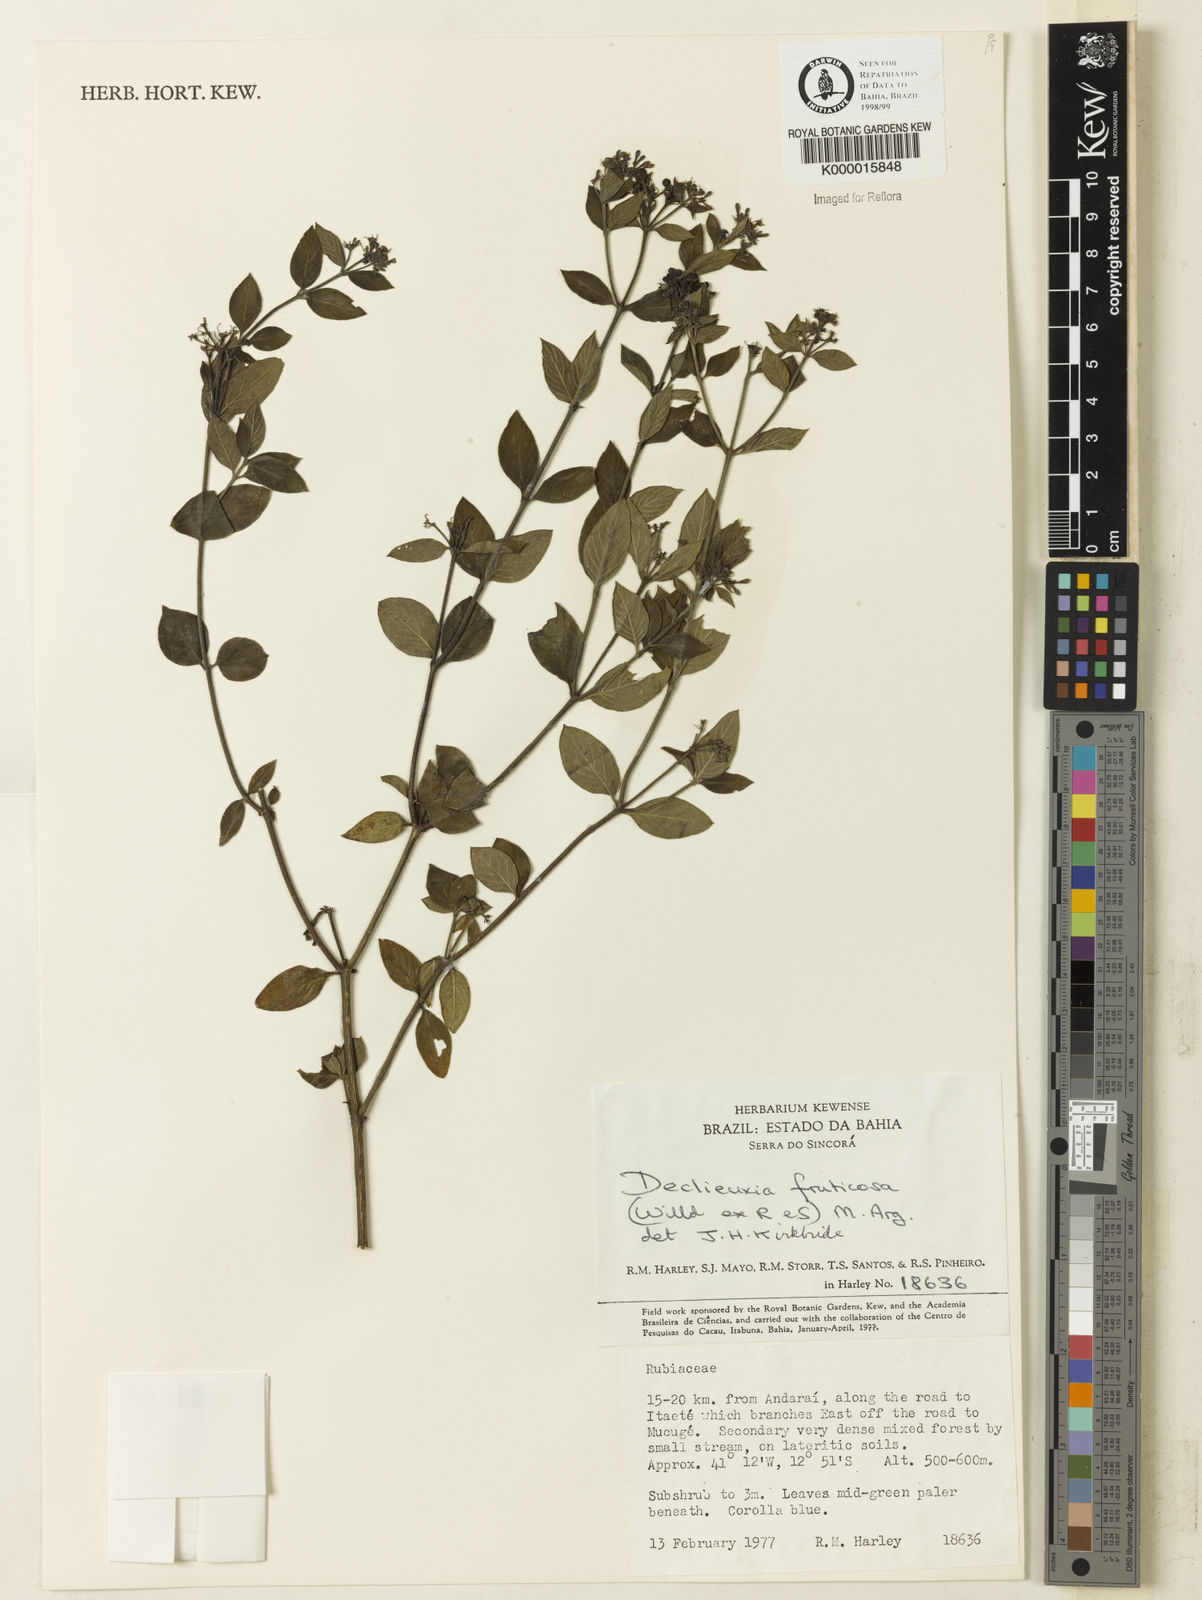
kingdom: Plantae
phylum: Tracheophyta
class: Magnoliopsida
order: Gentianales
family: Rubiaceae
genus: Declieuxia
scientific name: Declieuxia fruticosa
